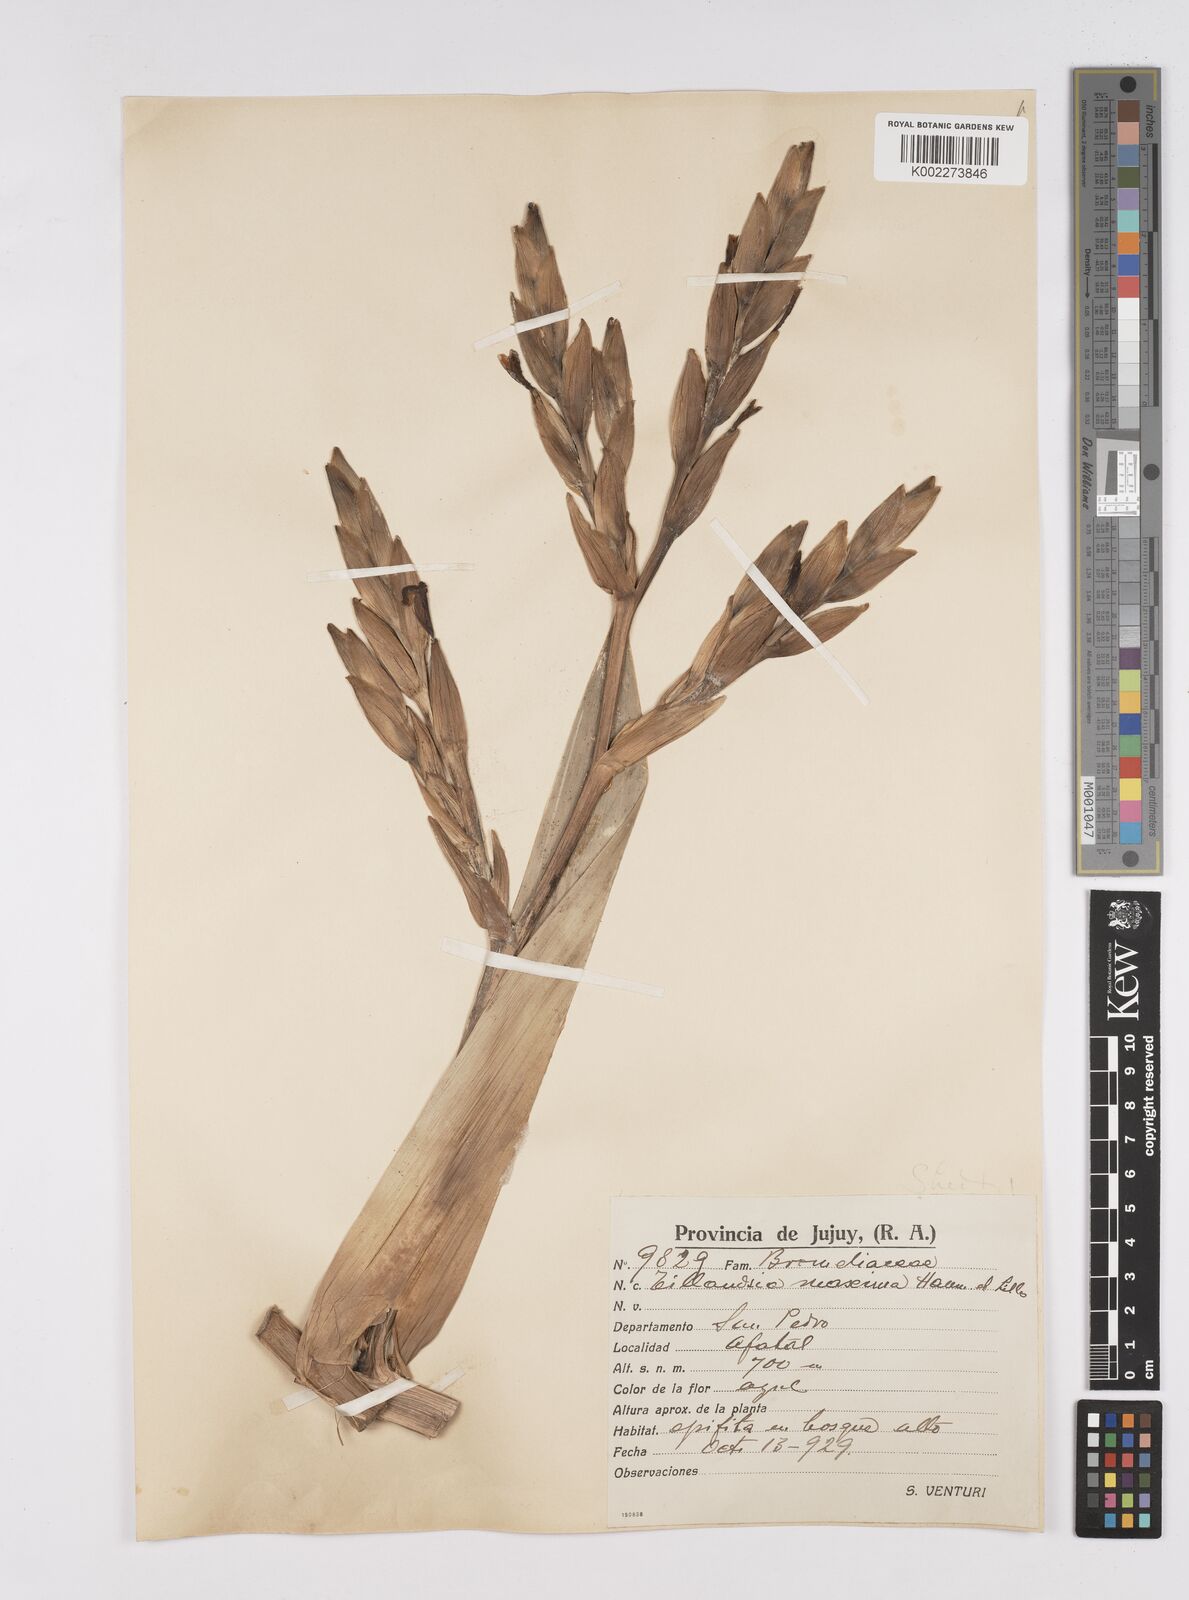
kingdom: Plantae
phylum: Tracheophyta
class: Liliopsida
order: Poales
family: Bromeliaceae
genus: Tillandsia
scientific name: Tillandsia australis
